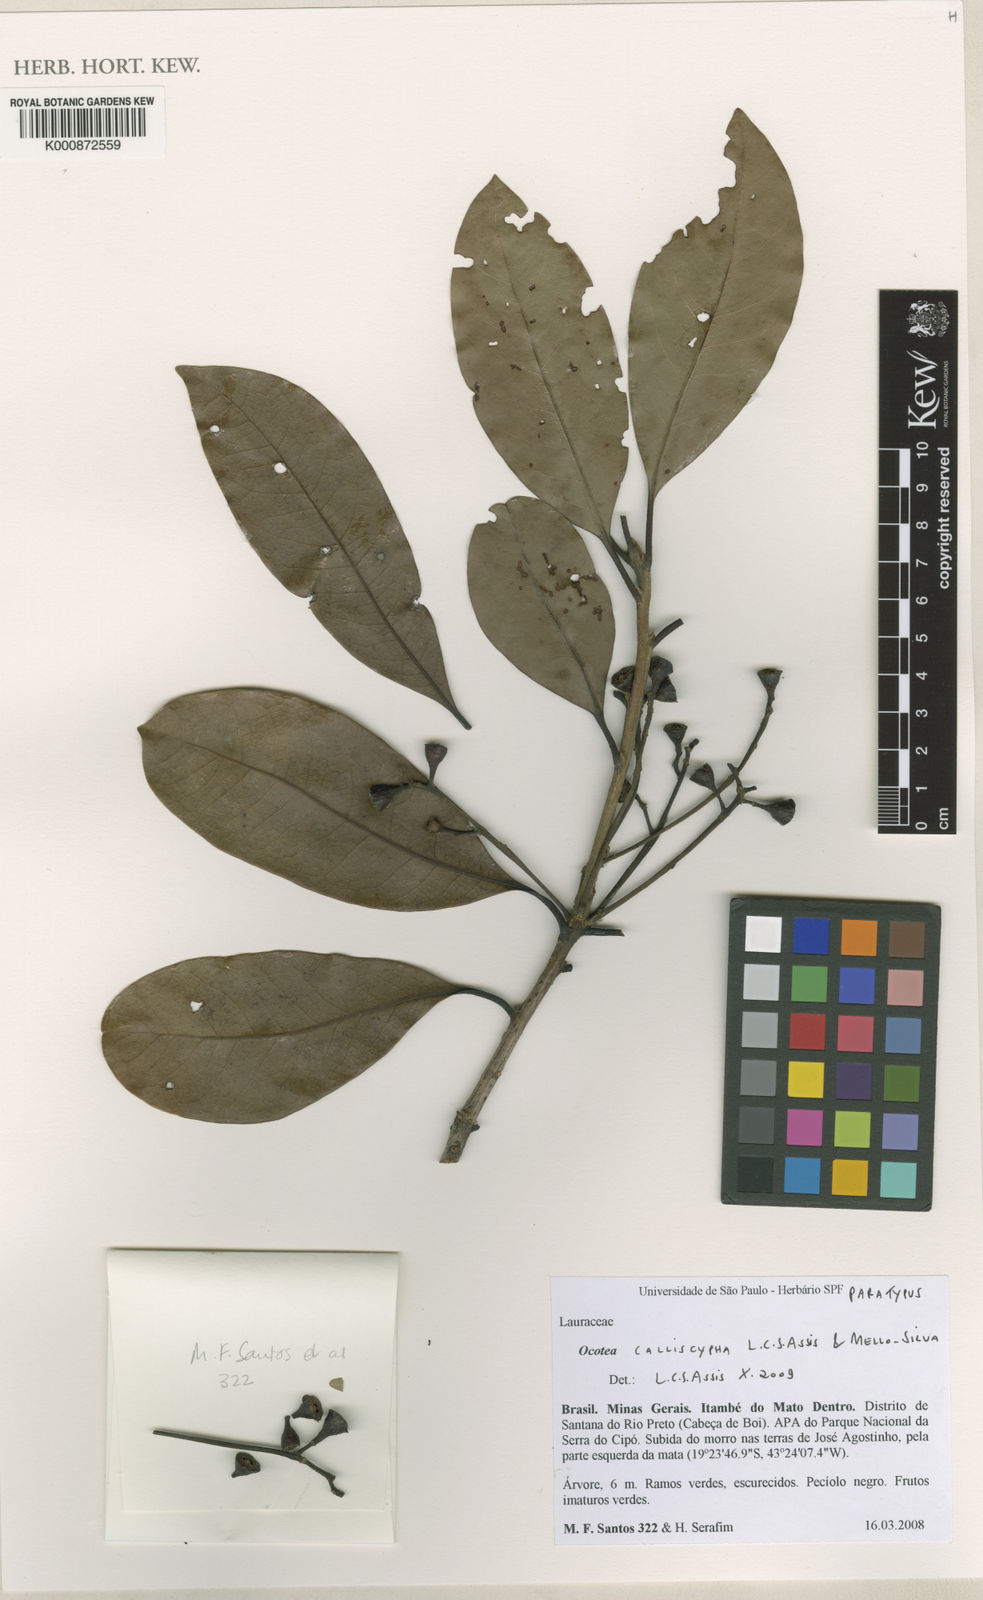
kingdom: Plantae
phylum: Tracheophyta
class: Magnoliopsida
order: Laurales
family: Lauraceae
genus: Ocotea
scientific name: Ocotea calliscypha
